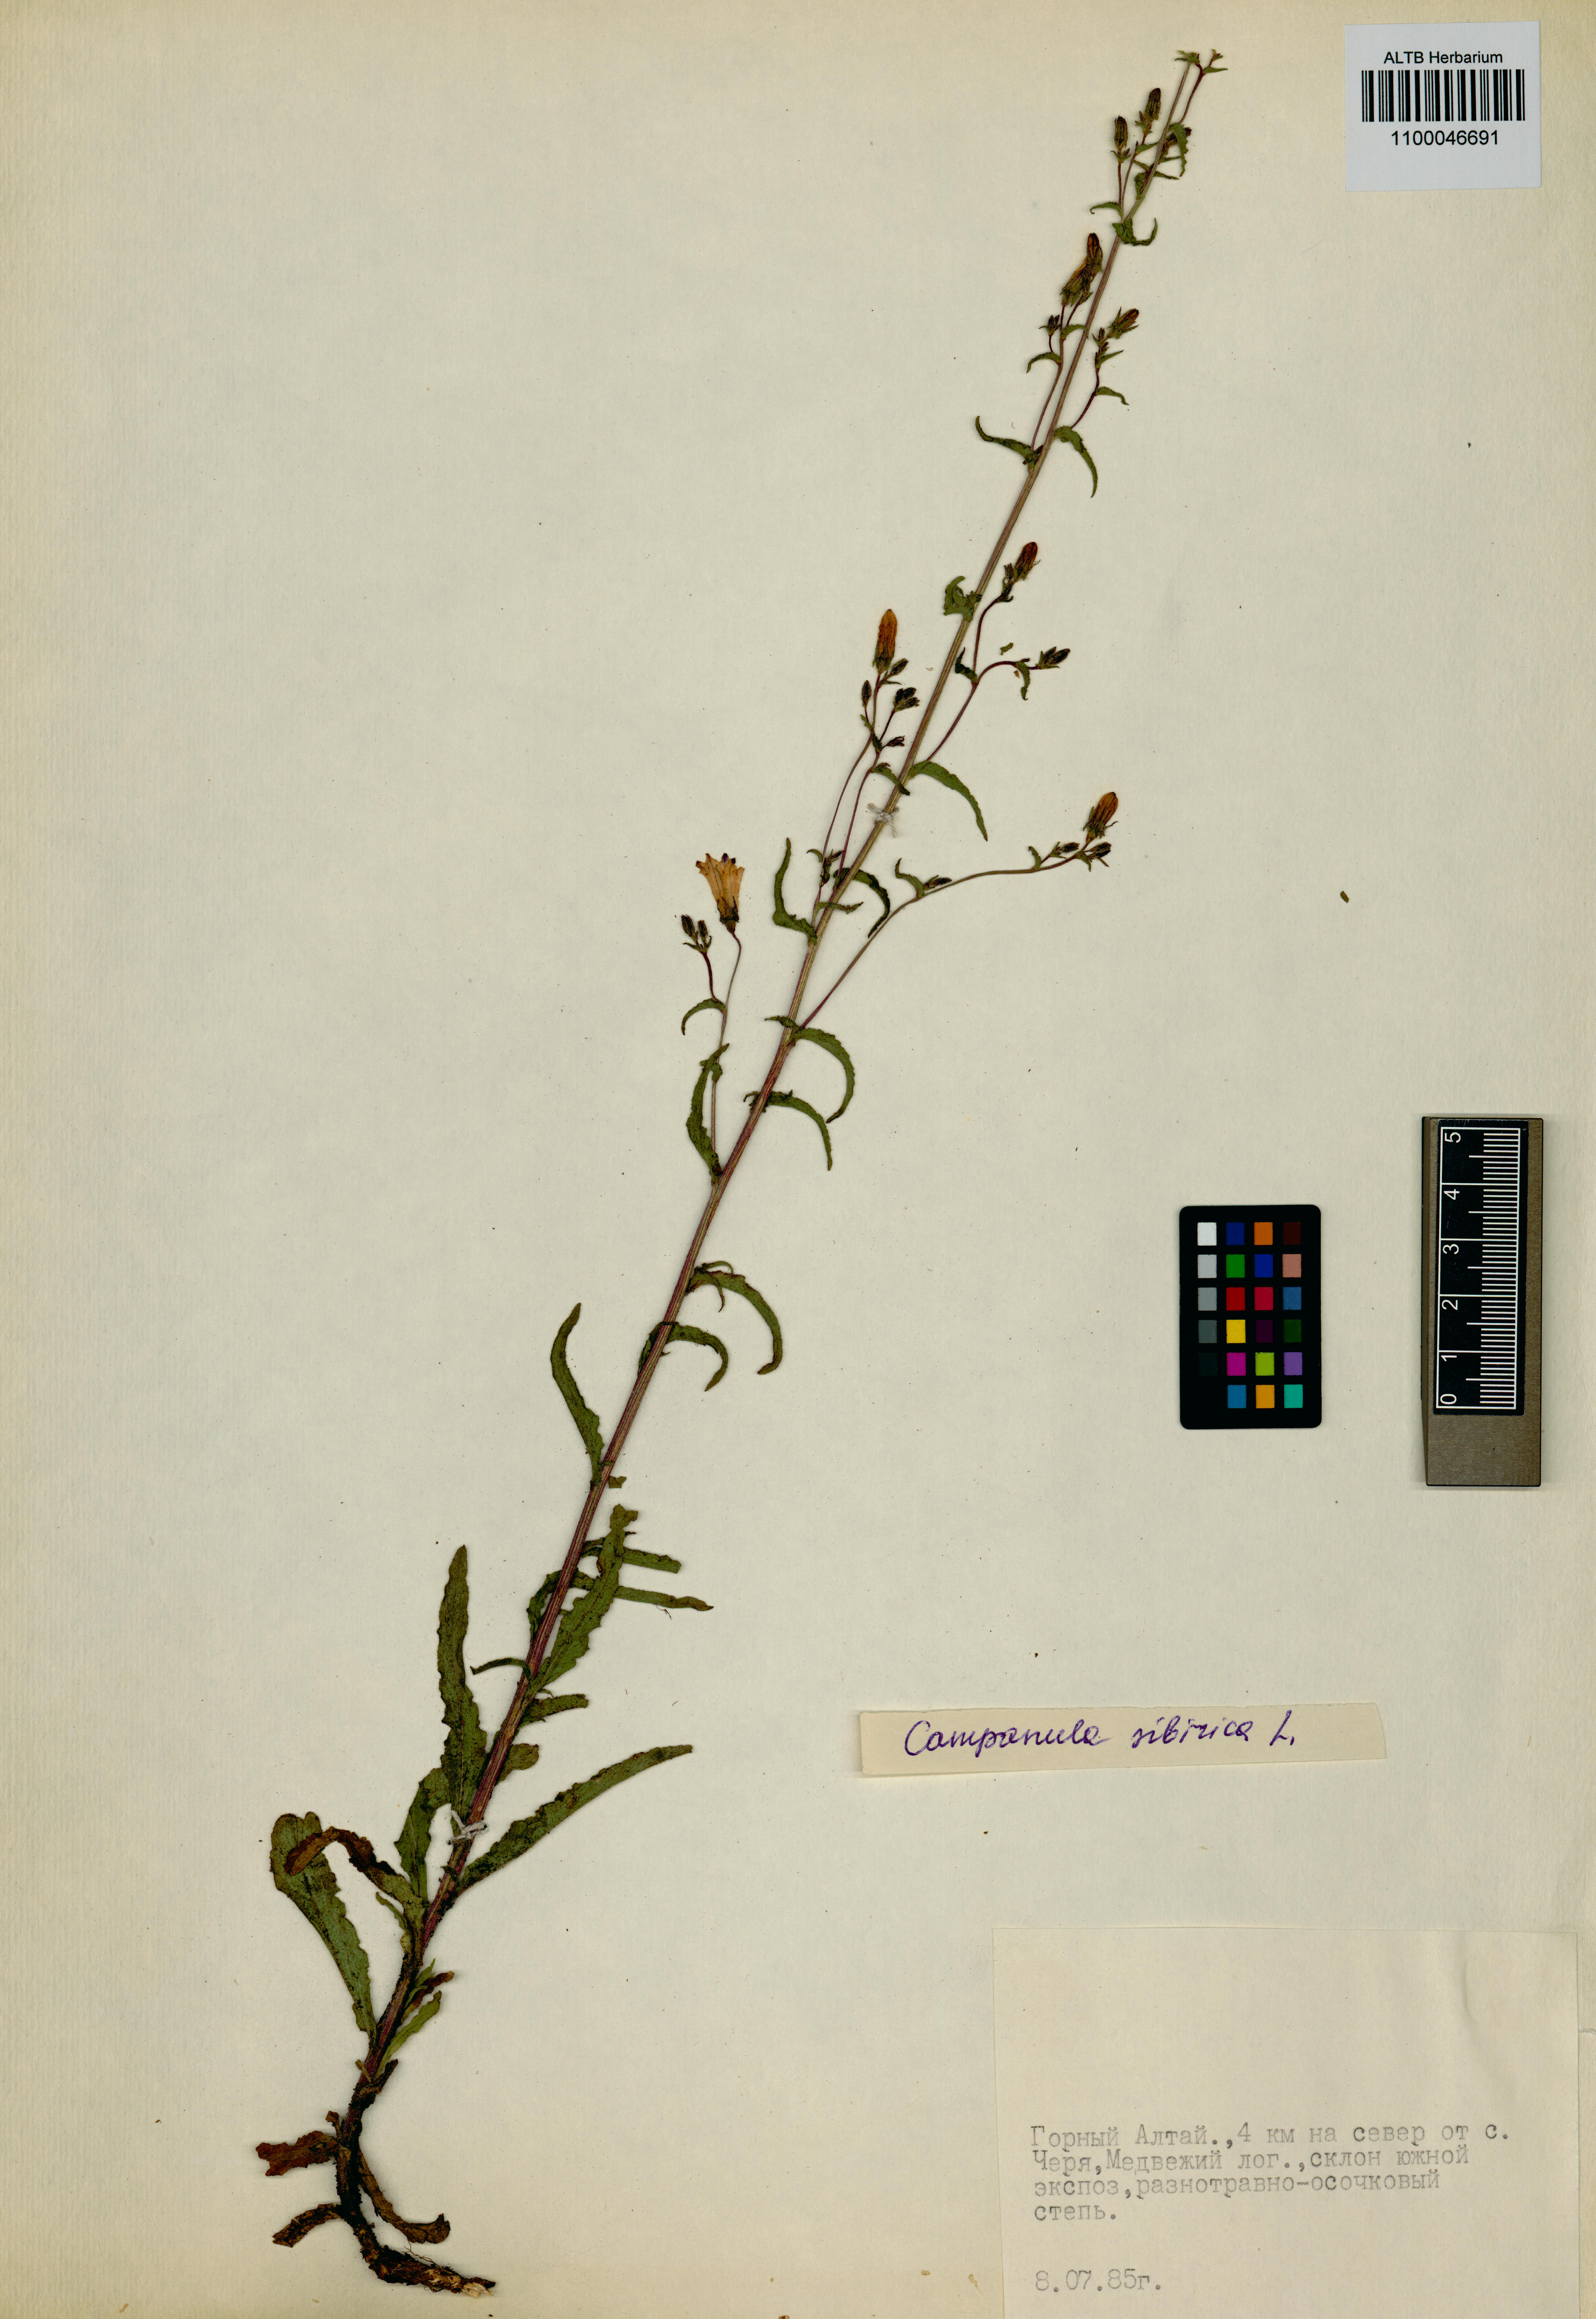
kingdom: Plantae
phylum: Tracheophyta
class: Magnoliopsida
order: Asterales
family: Campanulaceae
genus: Campanula
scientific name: Campanula sibirica
